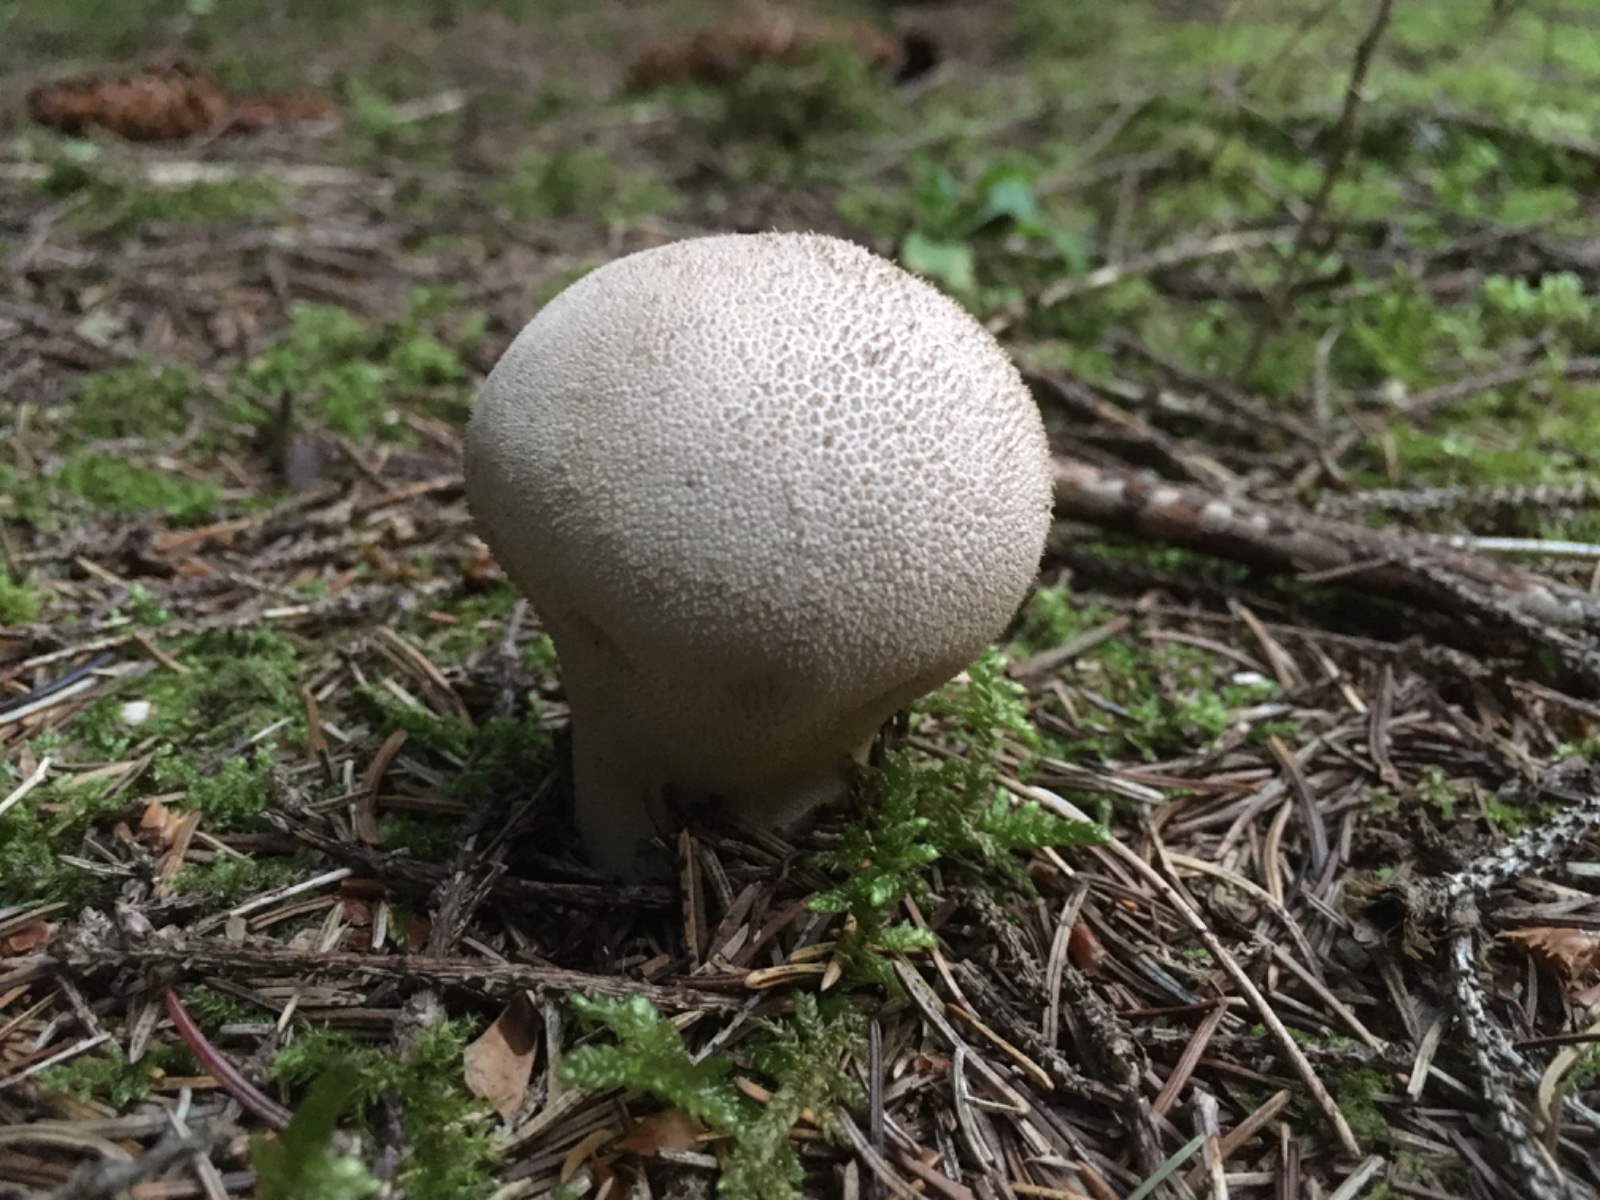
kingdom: Fungi
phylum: Basidiomycota
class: Agaricomycetes
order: Agaricales
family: Lycoperdaceae
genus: Lycoperdon
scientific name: Lycoperdon excipuliforme
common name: højstokket støvbold
